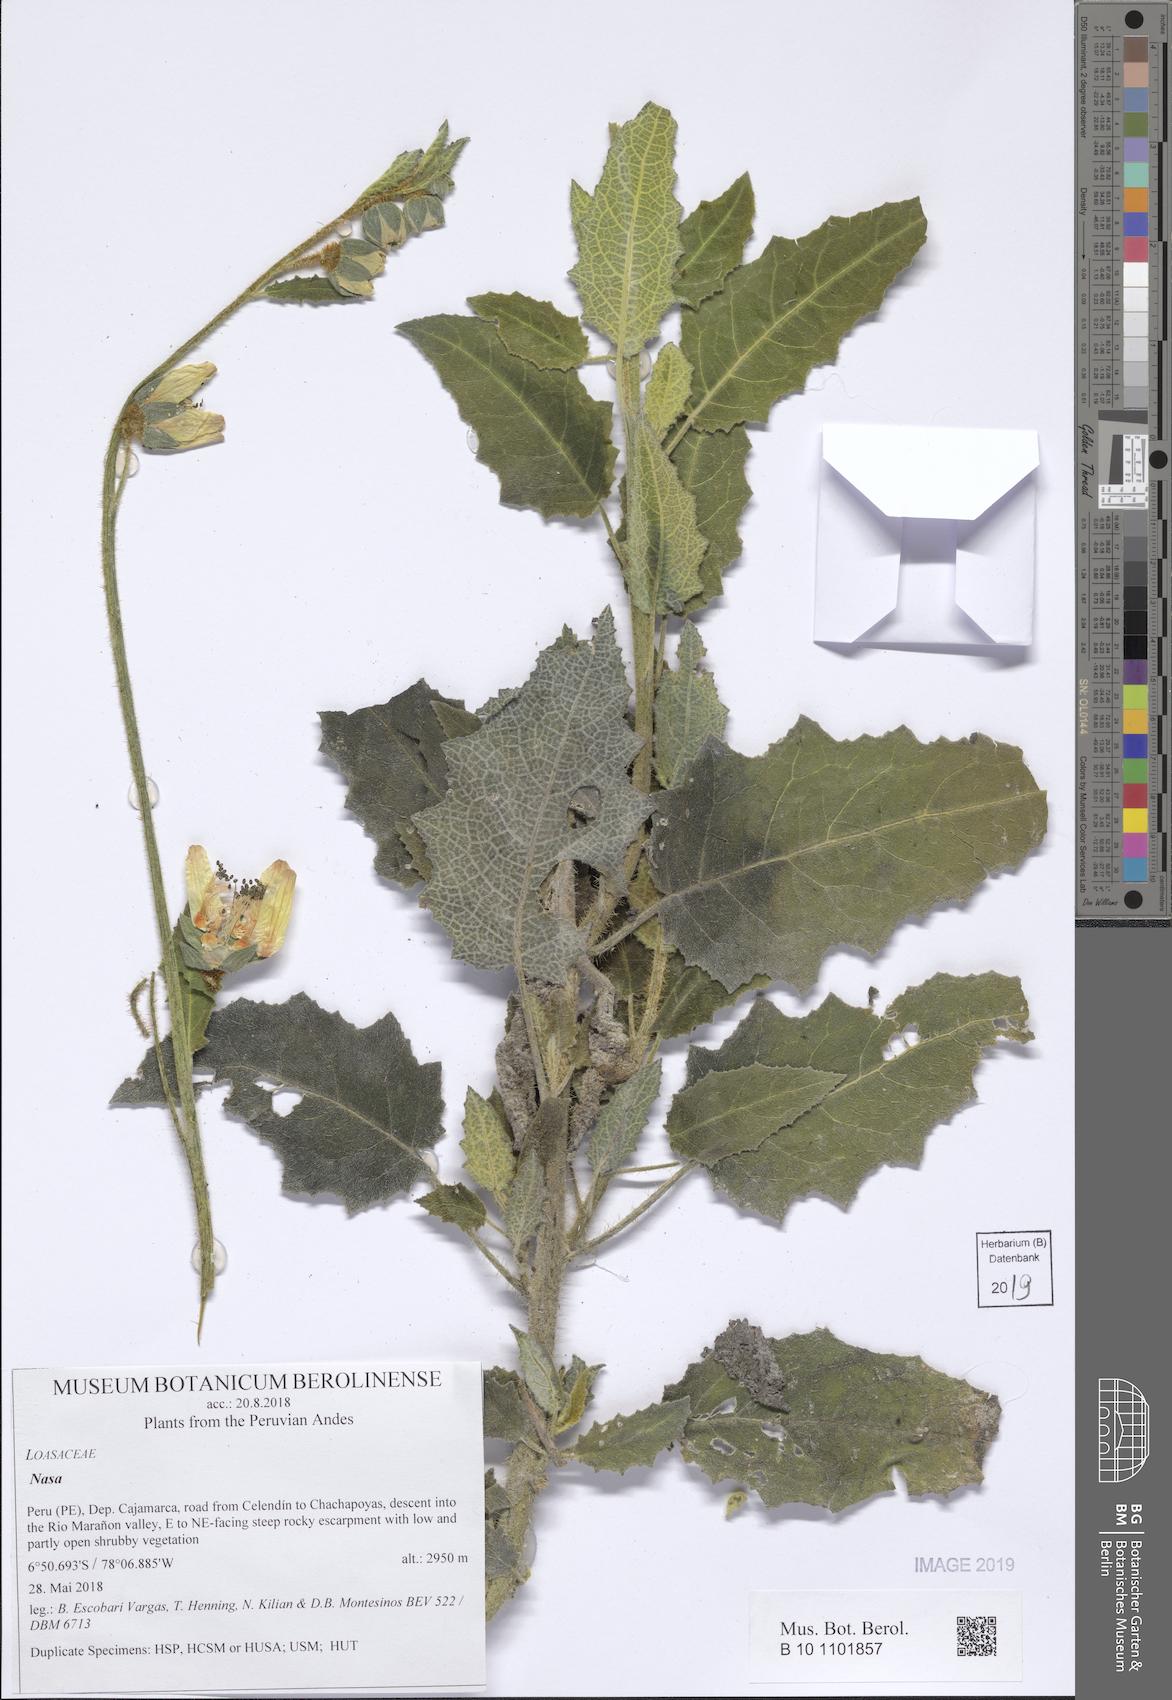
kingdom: Plantae
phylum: Tracheophyta
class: Magnoliopsida
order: Cornales
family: Loasaceae
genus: Nasa
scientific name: Nasa urentivelutina
